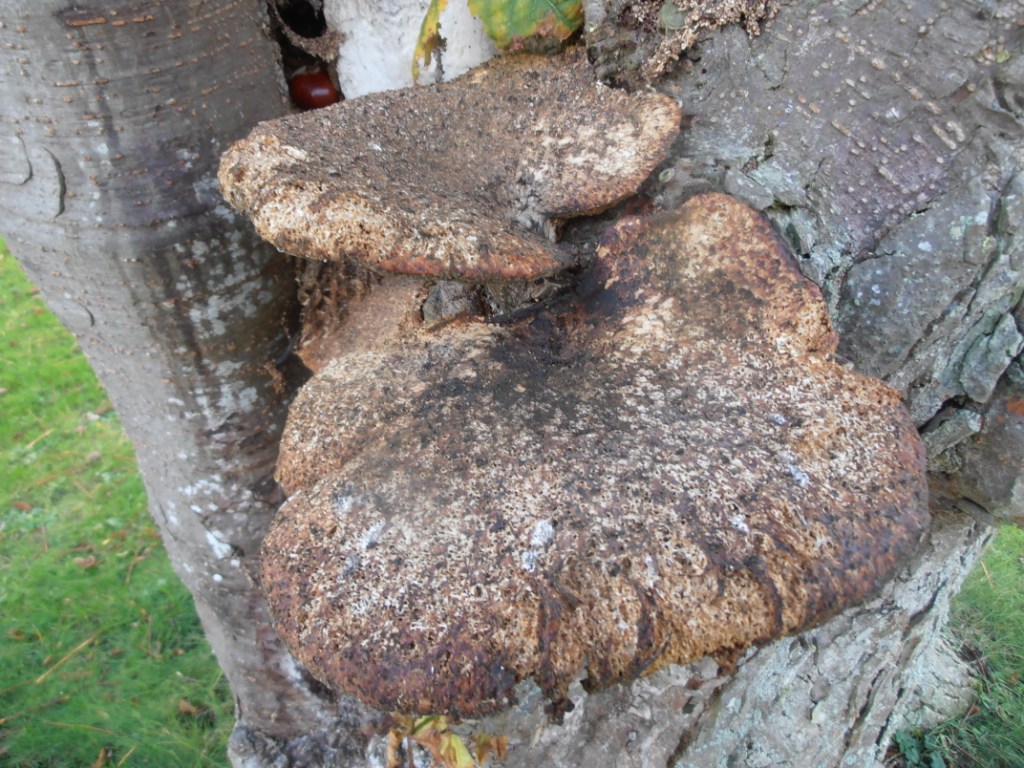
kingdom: Fungi
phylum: Basidiomycota
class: Agaricomycetes
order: Polyporales
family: Polyporaceae
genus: Cerioporus
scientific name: Cerioporus squamosus
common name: skællet stilkporesvamp
